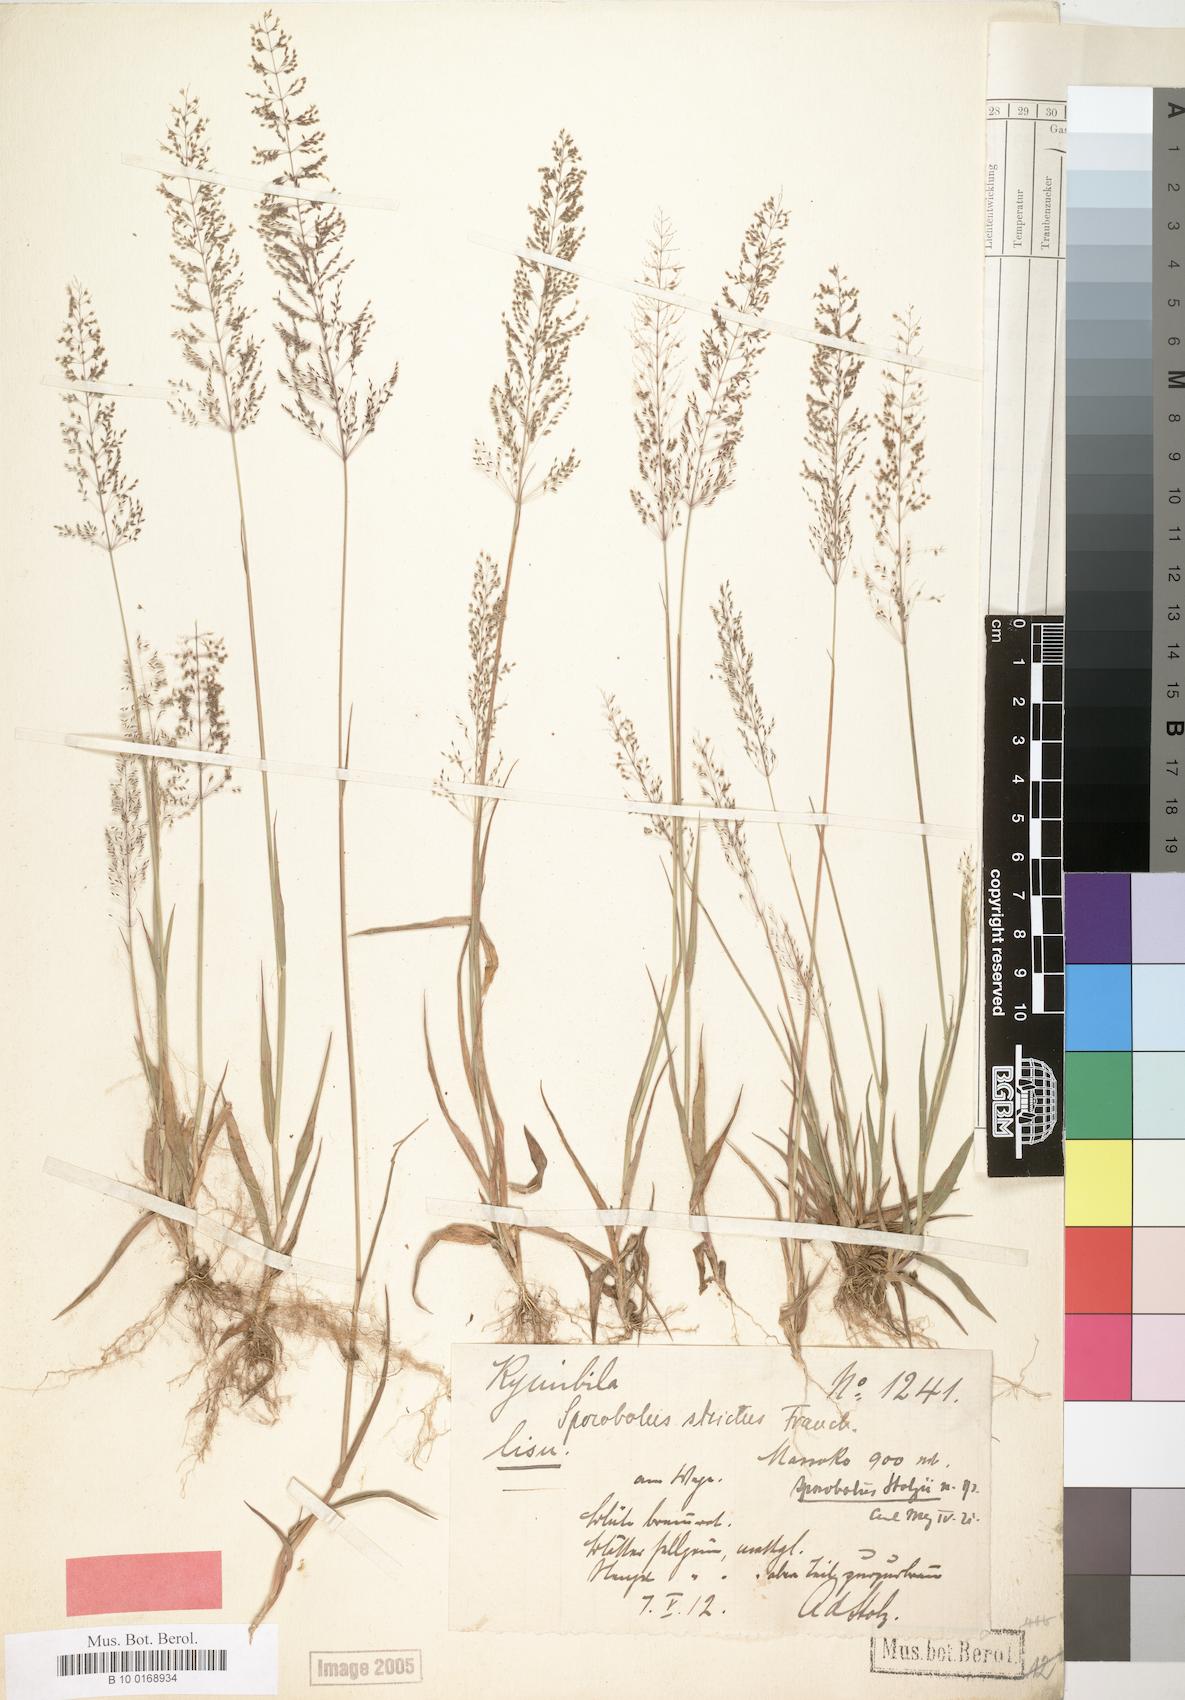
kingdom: Plantae
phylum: Tracheophyta
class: Liliopsida
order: Poales
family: Poaceae
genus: Sporobolus
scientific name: Sporobolus stolzii
